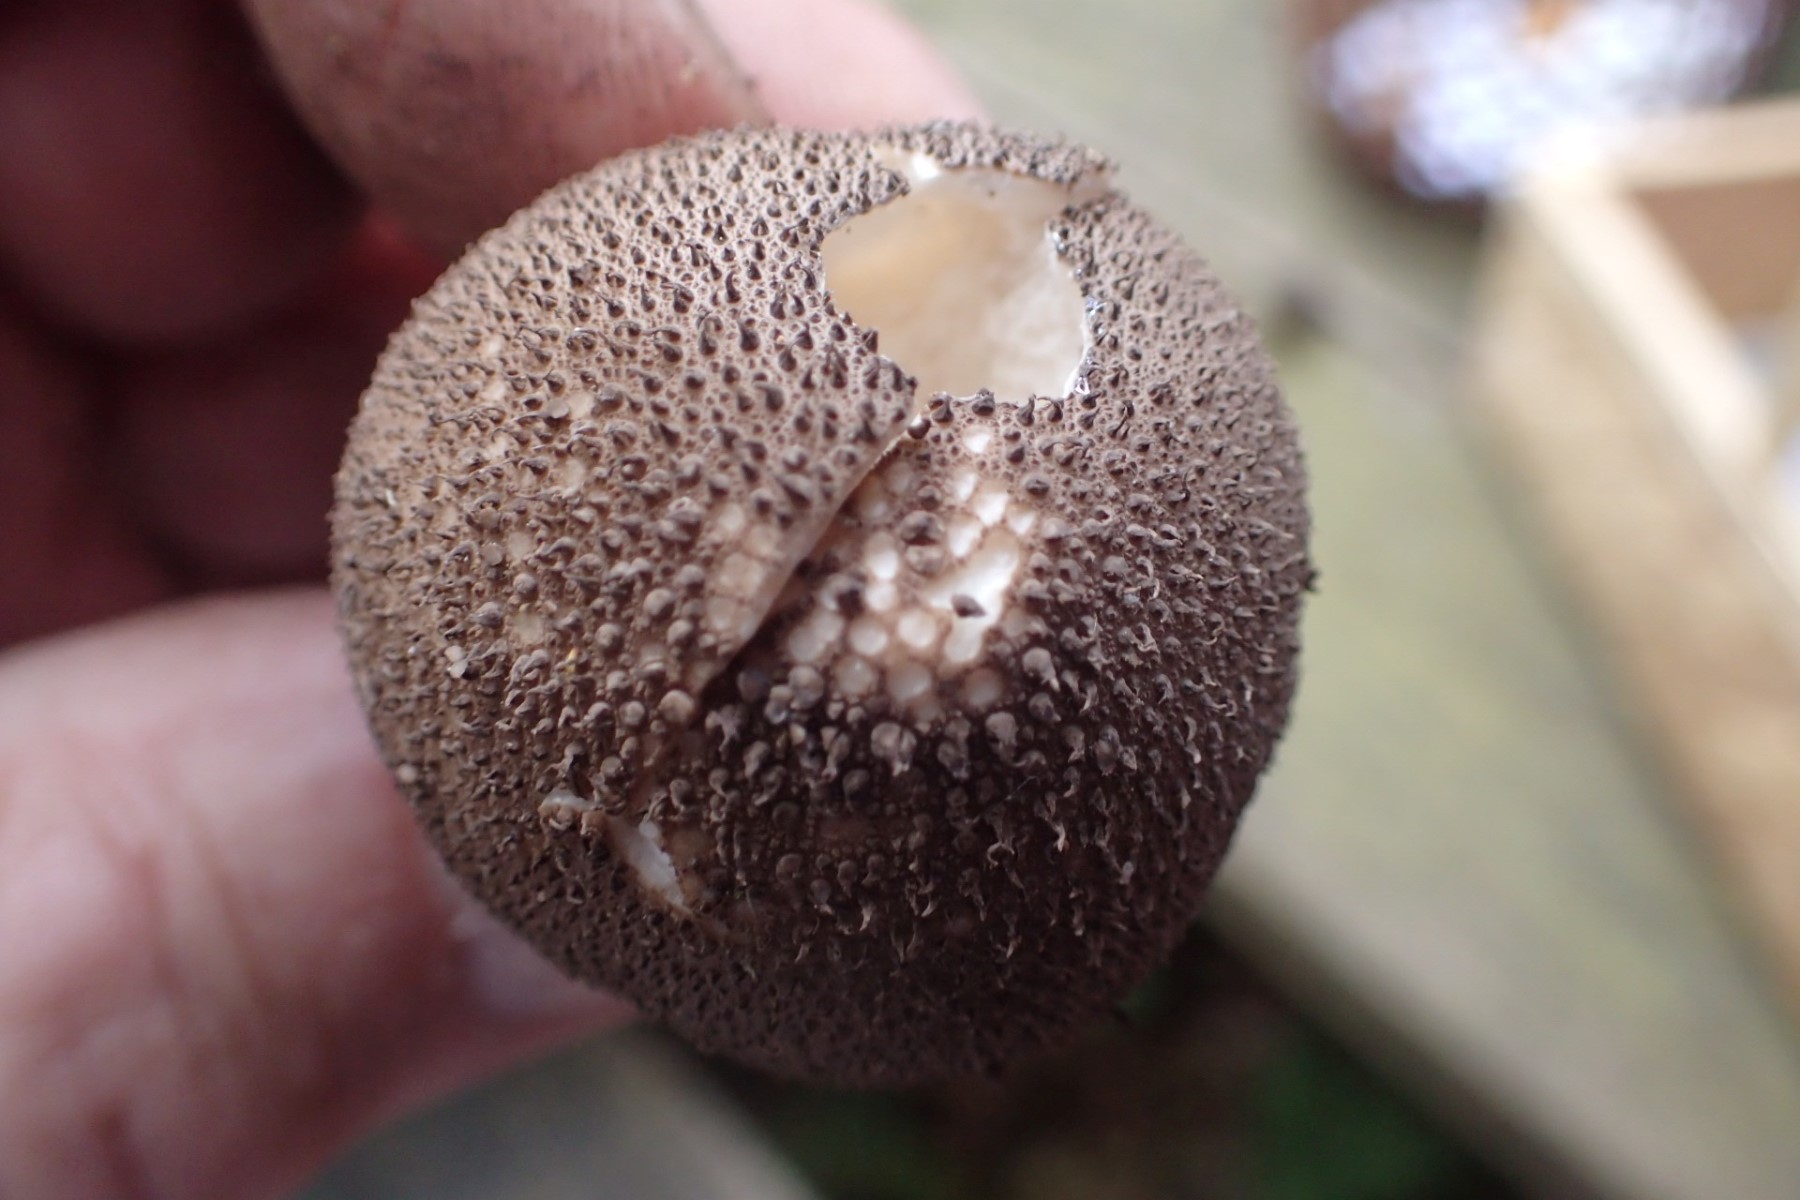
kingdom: Fungi
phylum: Basidiomycota
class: Agaricomycetes
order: Agaricales
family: Lycoperdaceae
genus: Lycoperdon
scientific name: Lycoperdon nigrescens
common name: sortagtig støvbold
